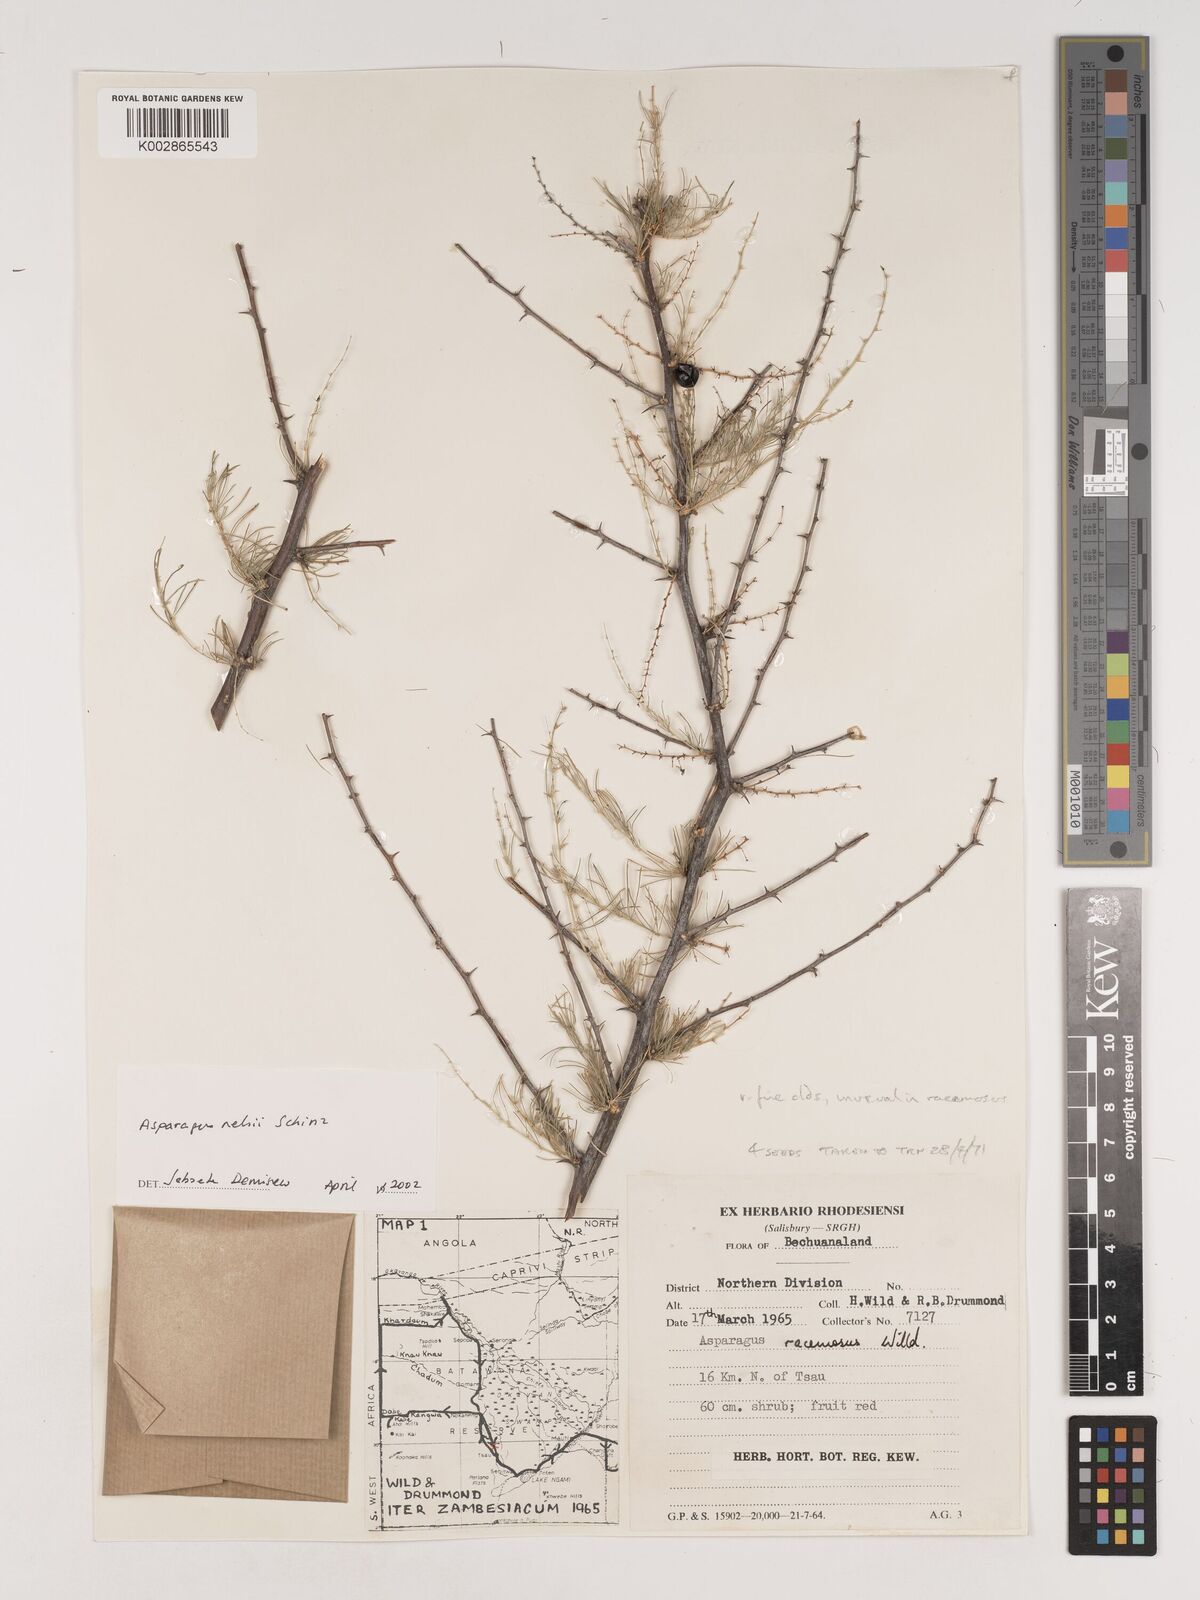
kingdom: Plantae
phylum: Tracheophyta
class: Liliopsida
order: Asparagales
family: Asparagaceae
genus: Asparagus
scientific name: Asparagus nelsii
